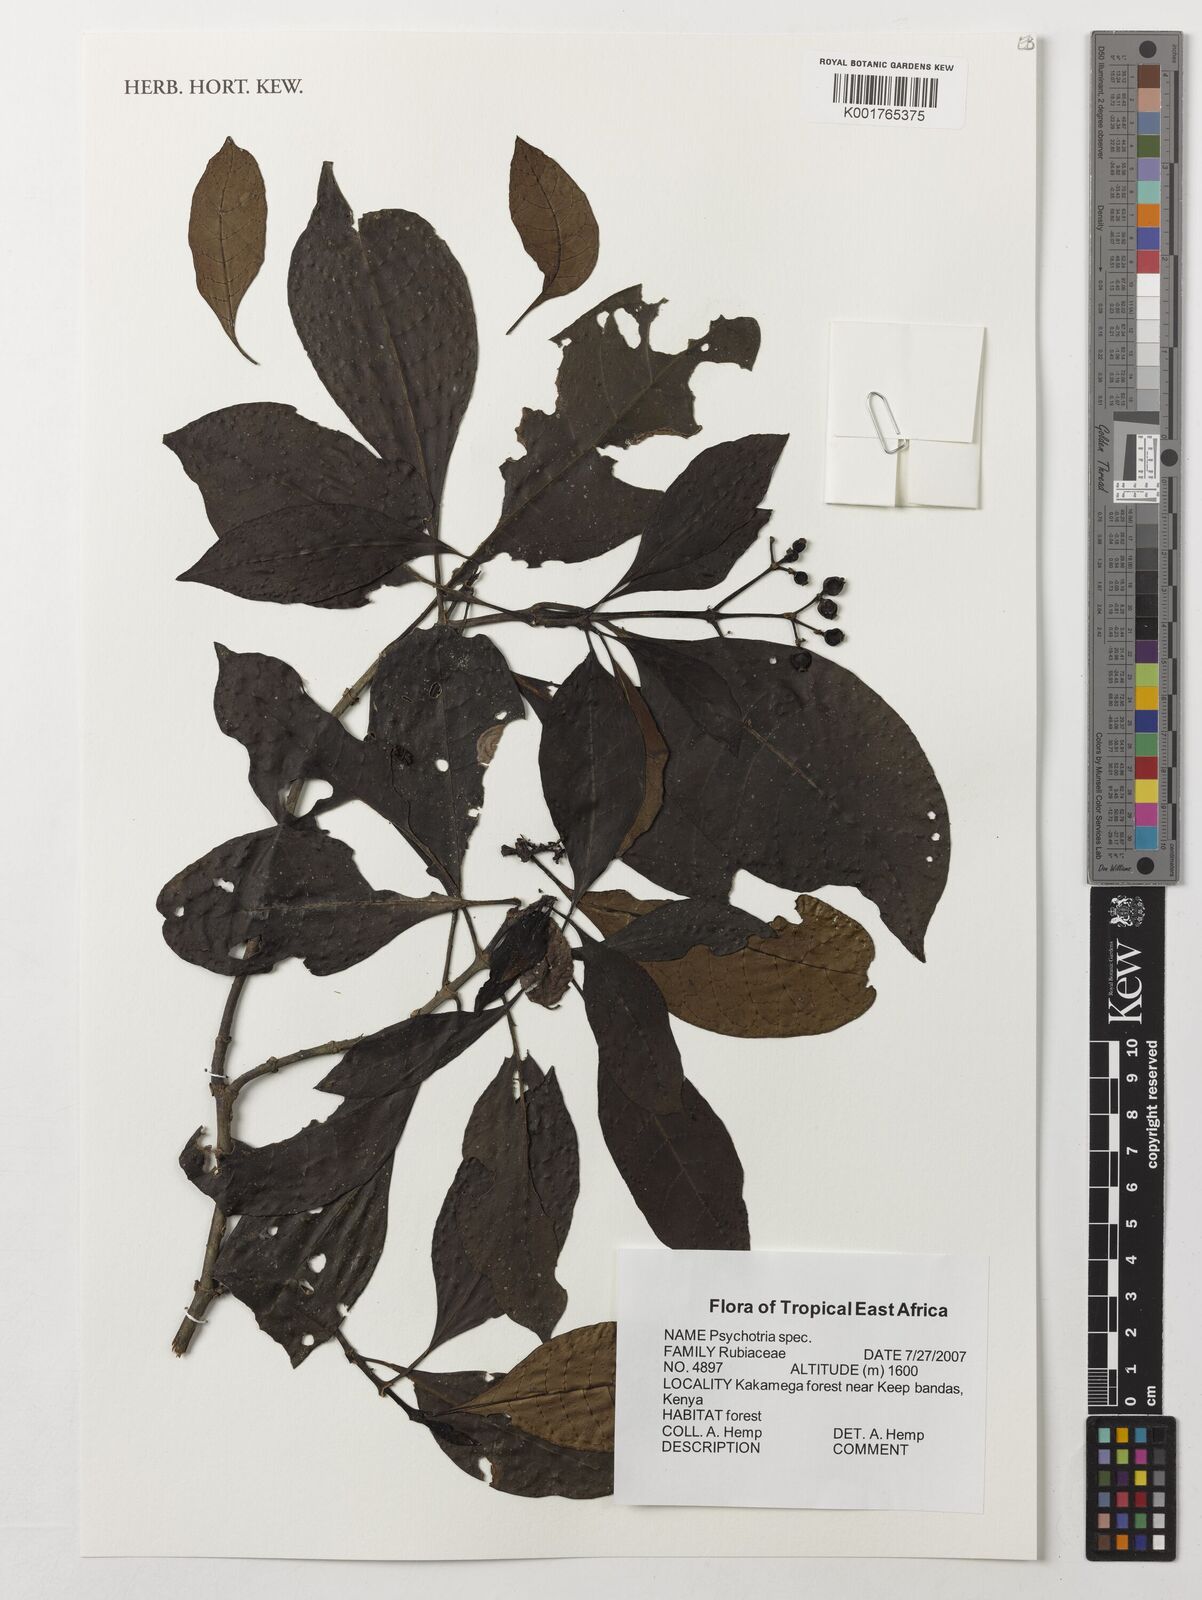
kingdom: Plantae
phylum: Tracheophyta
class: Magnoliopsida
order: Gentianales
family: Rubiaceae
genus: Psychotria
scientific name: Psychotria
